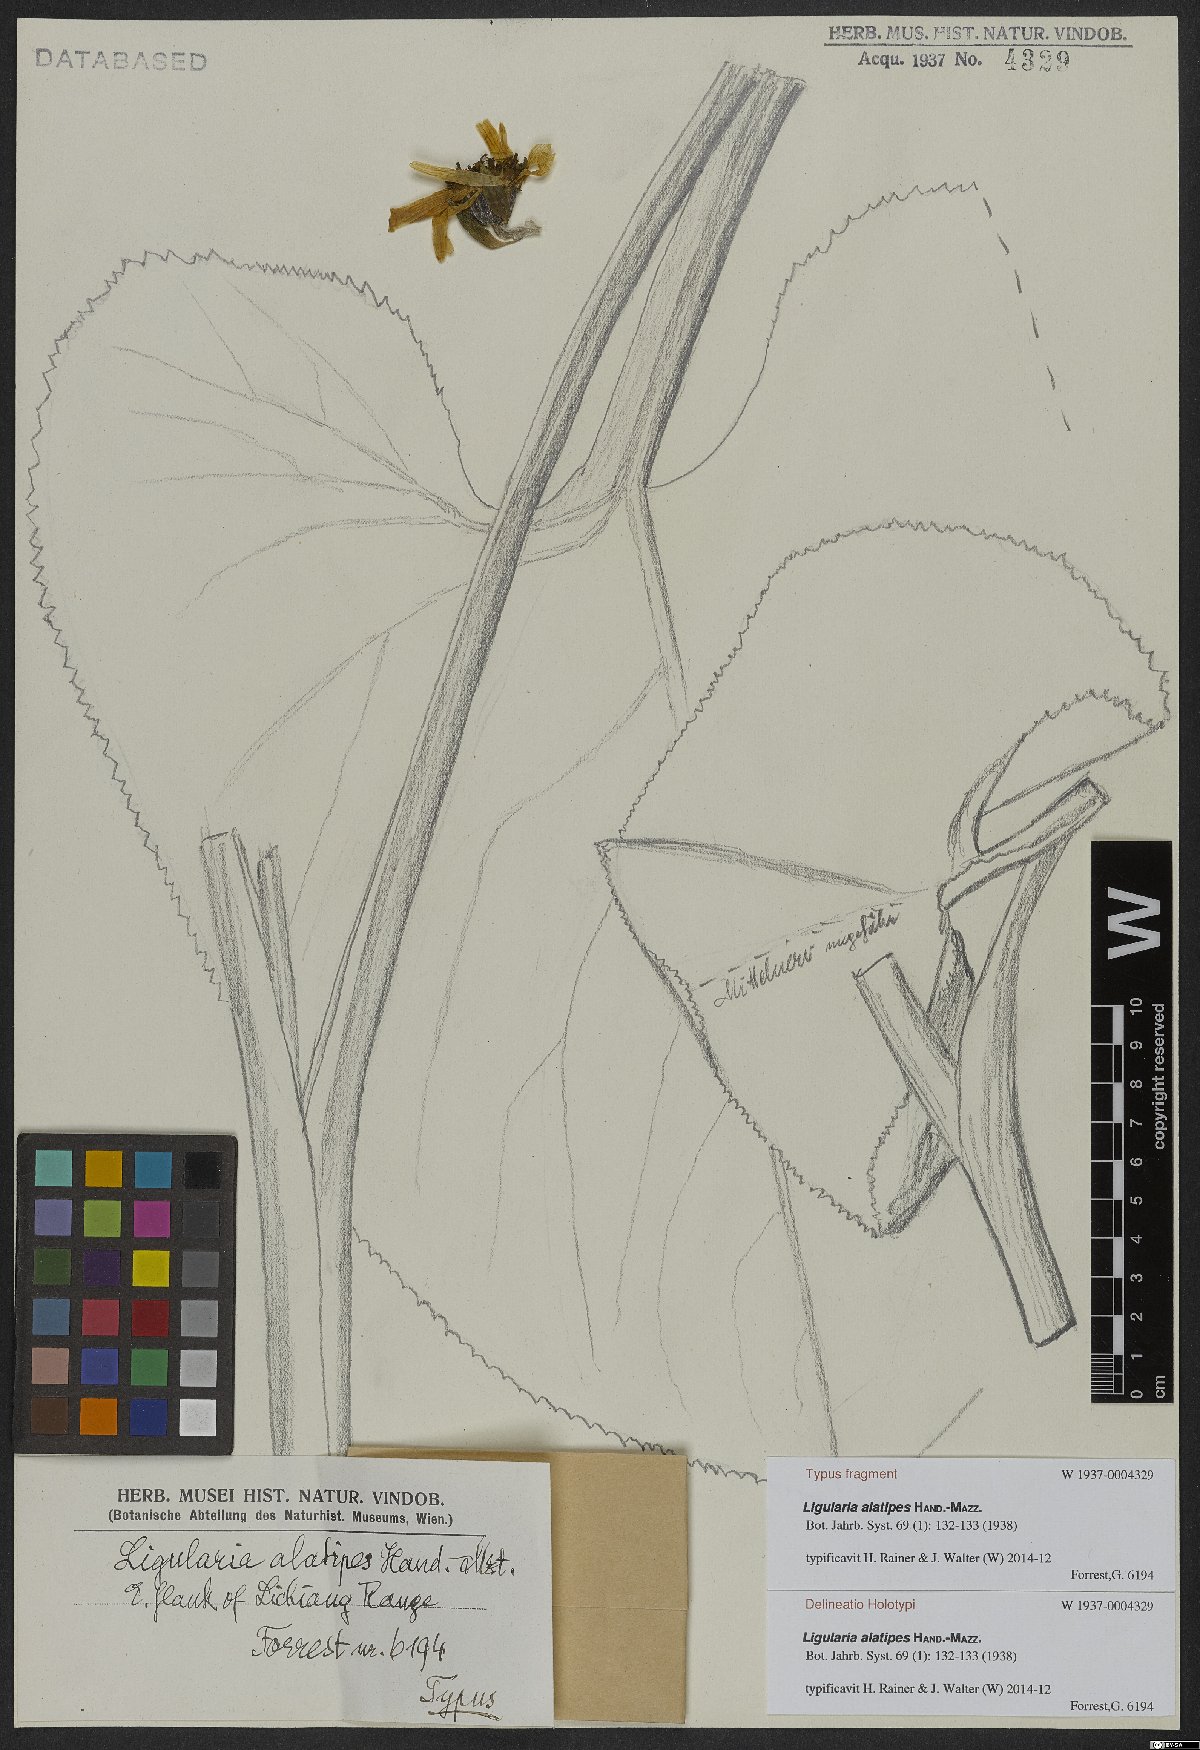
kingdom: Plantae
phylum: Tracheophyta
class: Magnoliopsida
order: Asterales
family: Asteraceae
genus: Ligularia
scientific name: Ligularia alatipes
